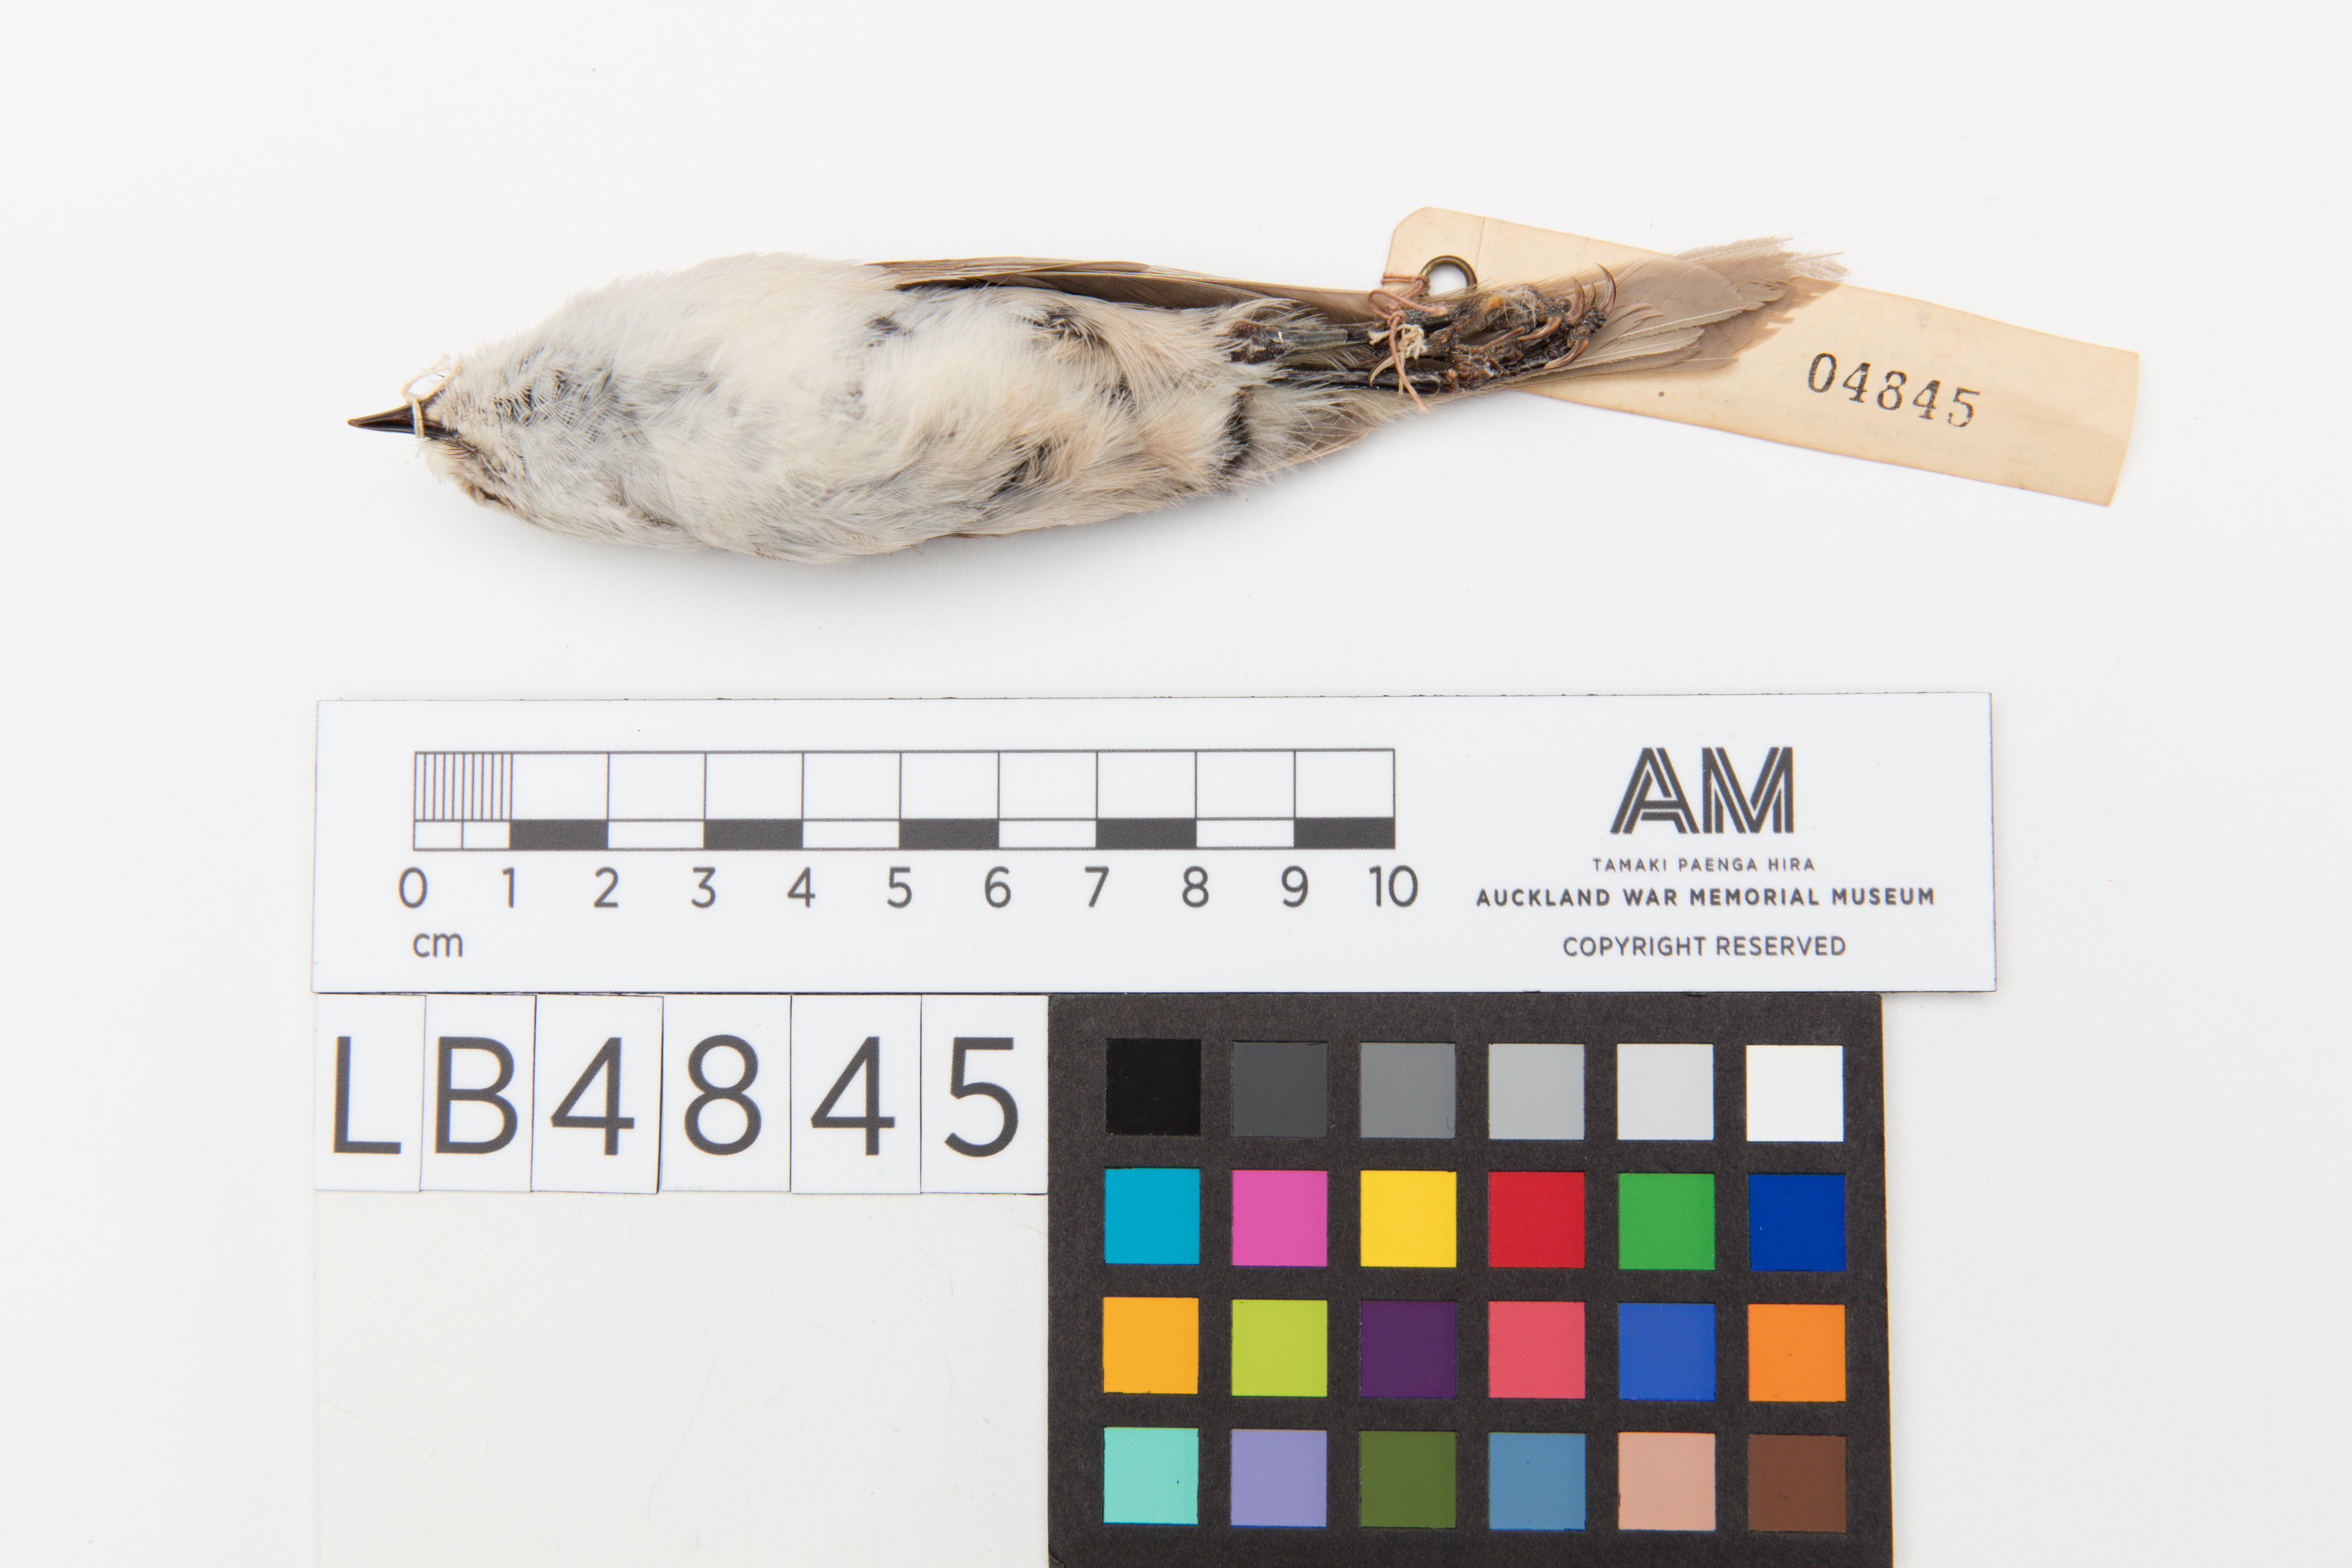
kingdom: Animalia
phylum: Chordata
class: Aves
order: Passeriformes
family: Acanthizidae
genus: Mohoua
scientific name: Mohoua albicilla
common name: Whitehead
